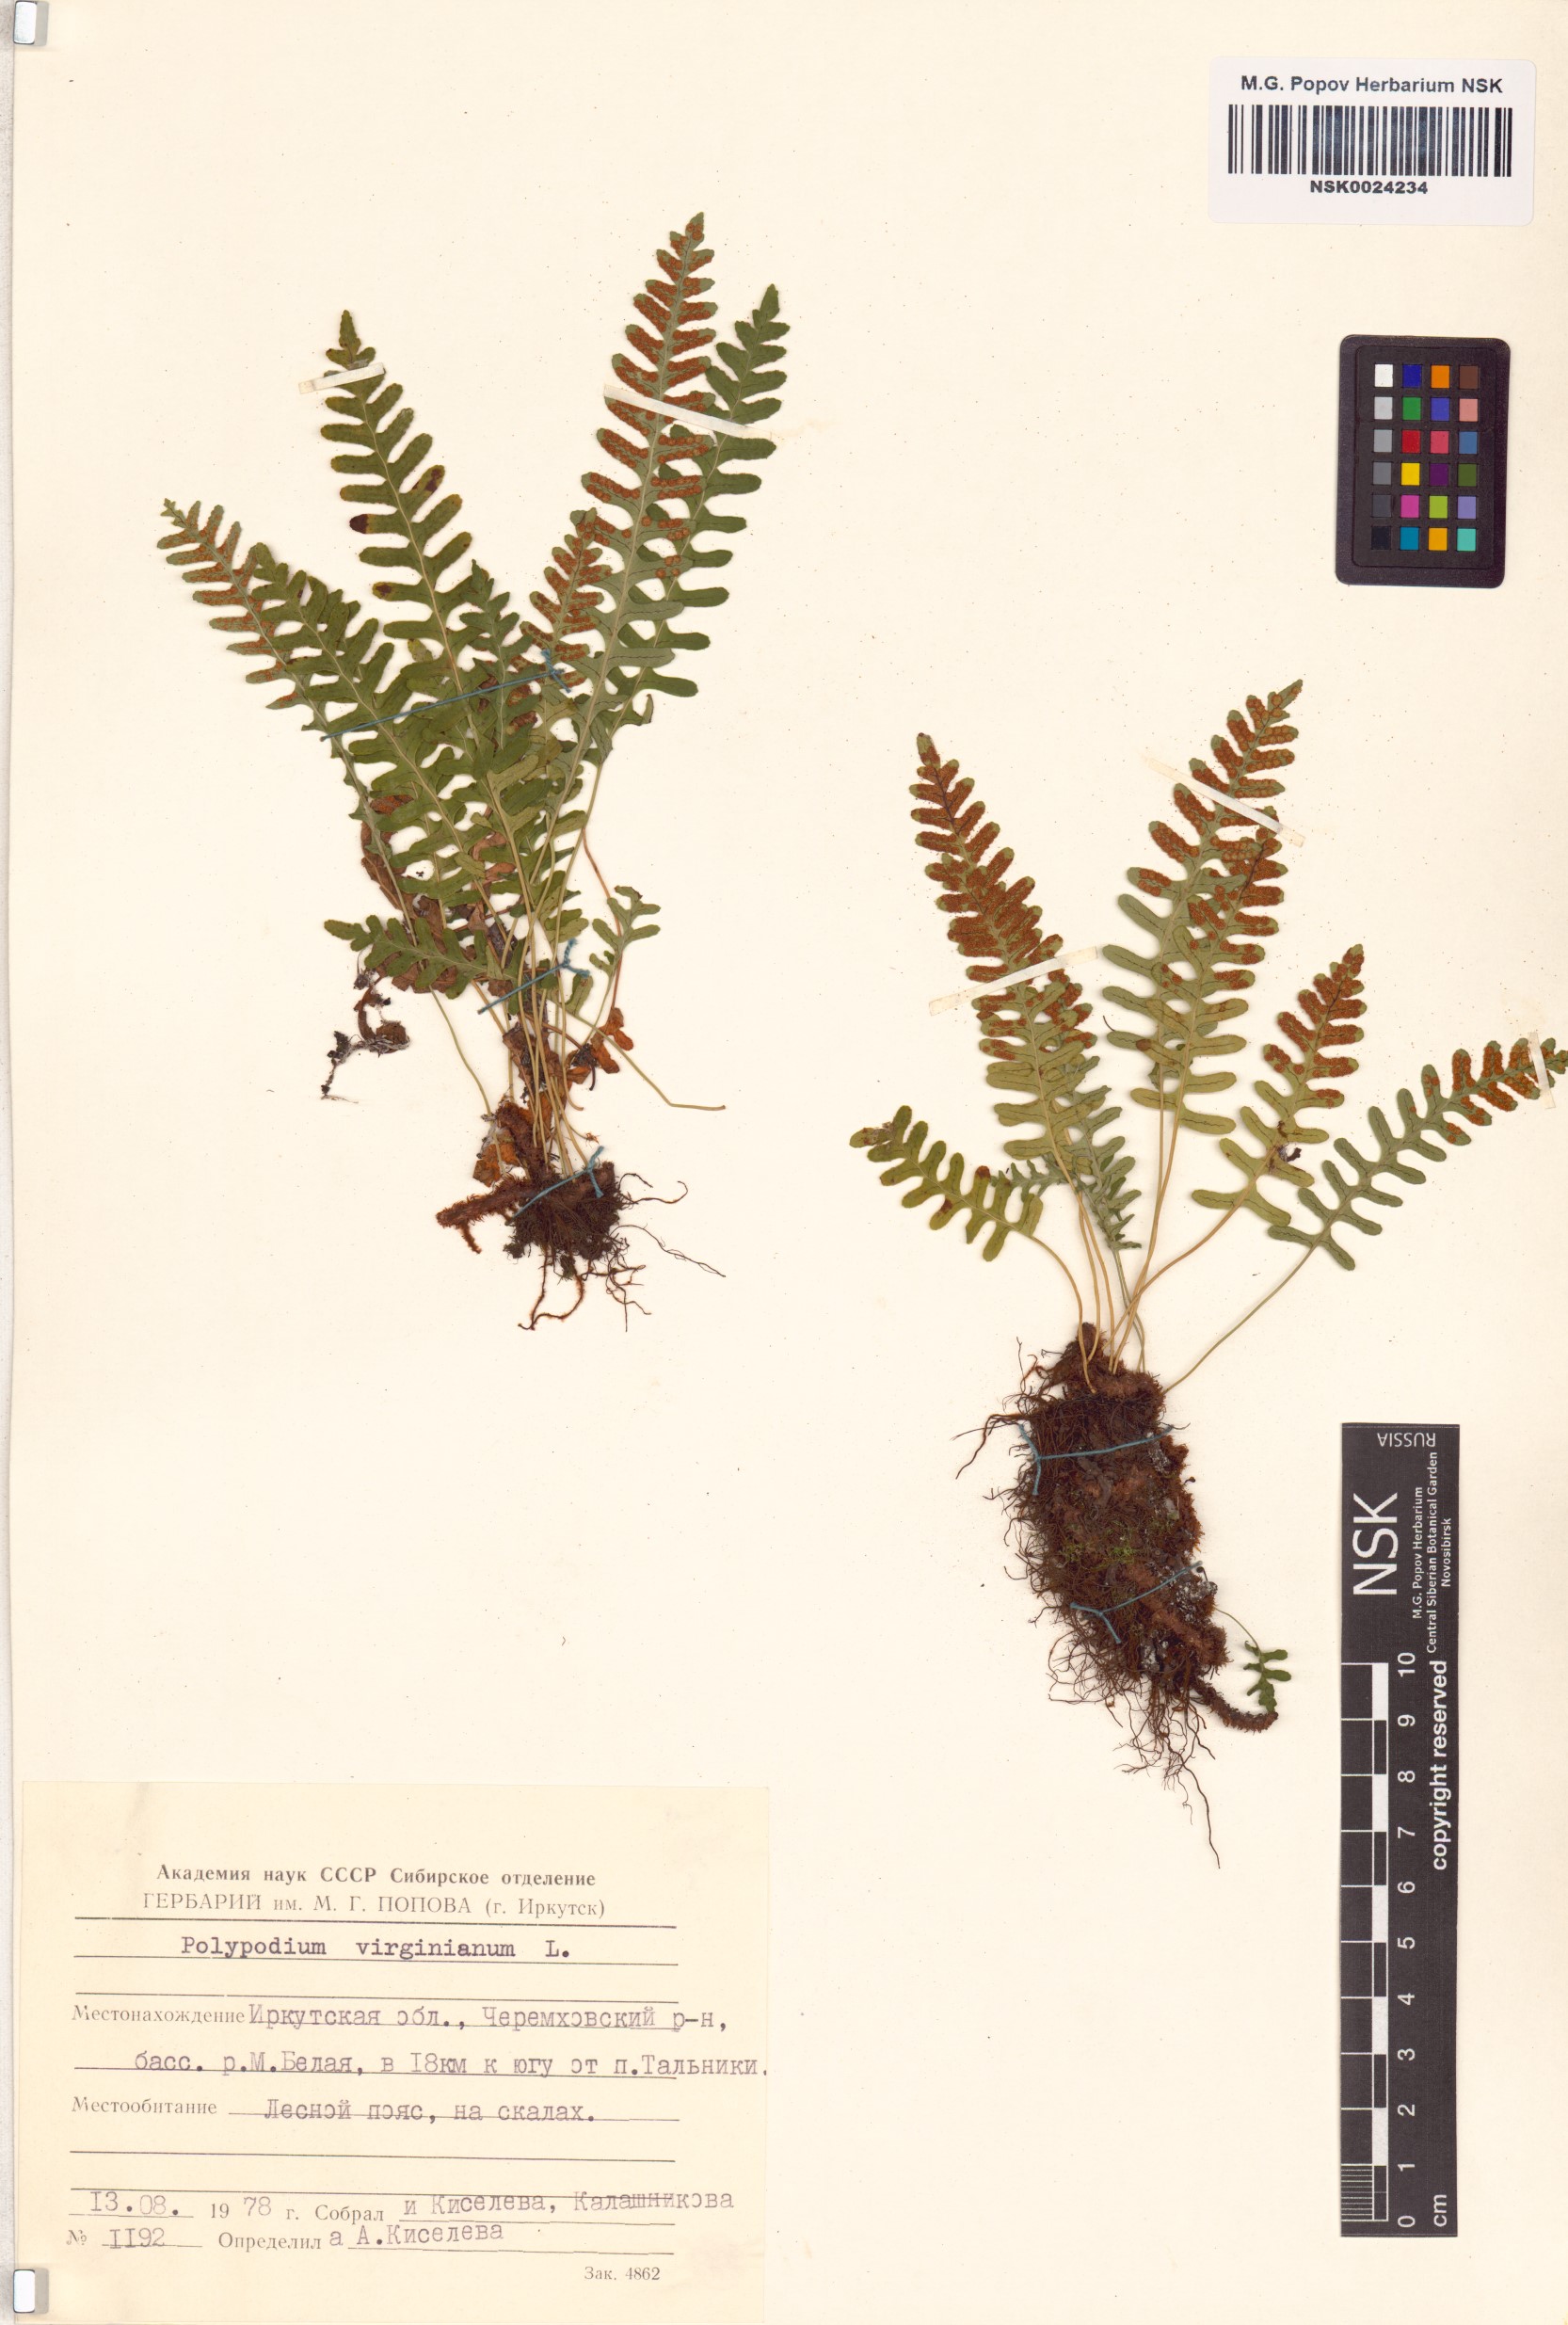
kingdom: Plantae
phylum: Tracheophyta
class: Polypodiopsida
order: Polypodiales
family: Polypodiaceae
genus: Polypodium
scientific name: Polypodium virginianum
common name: American wall fern
